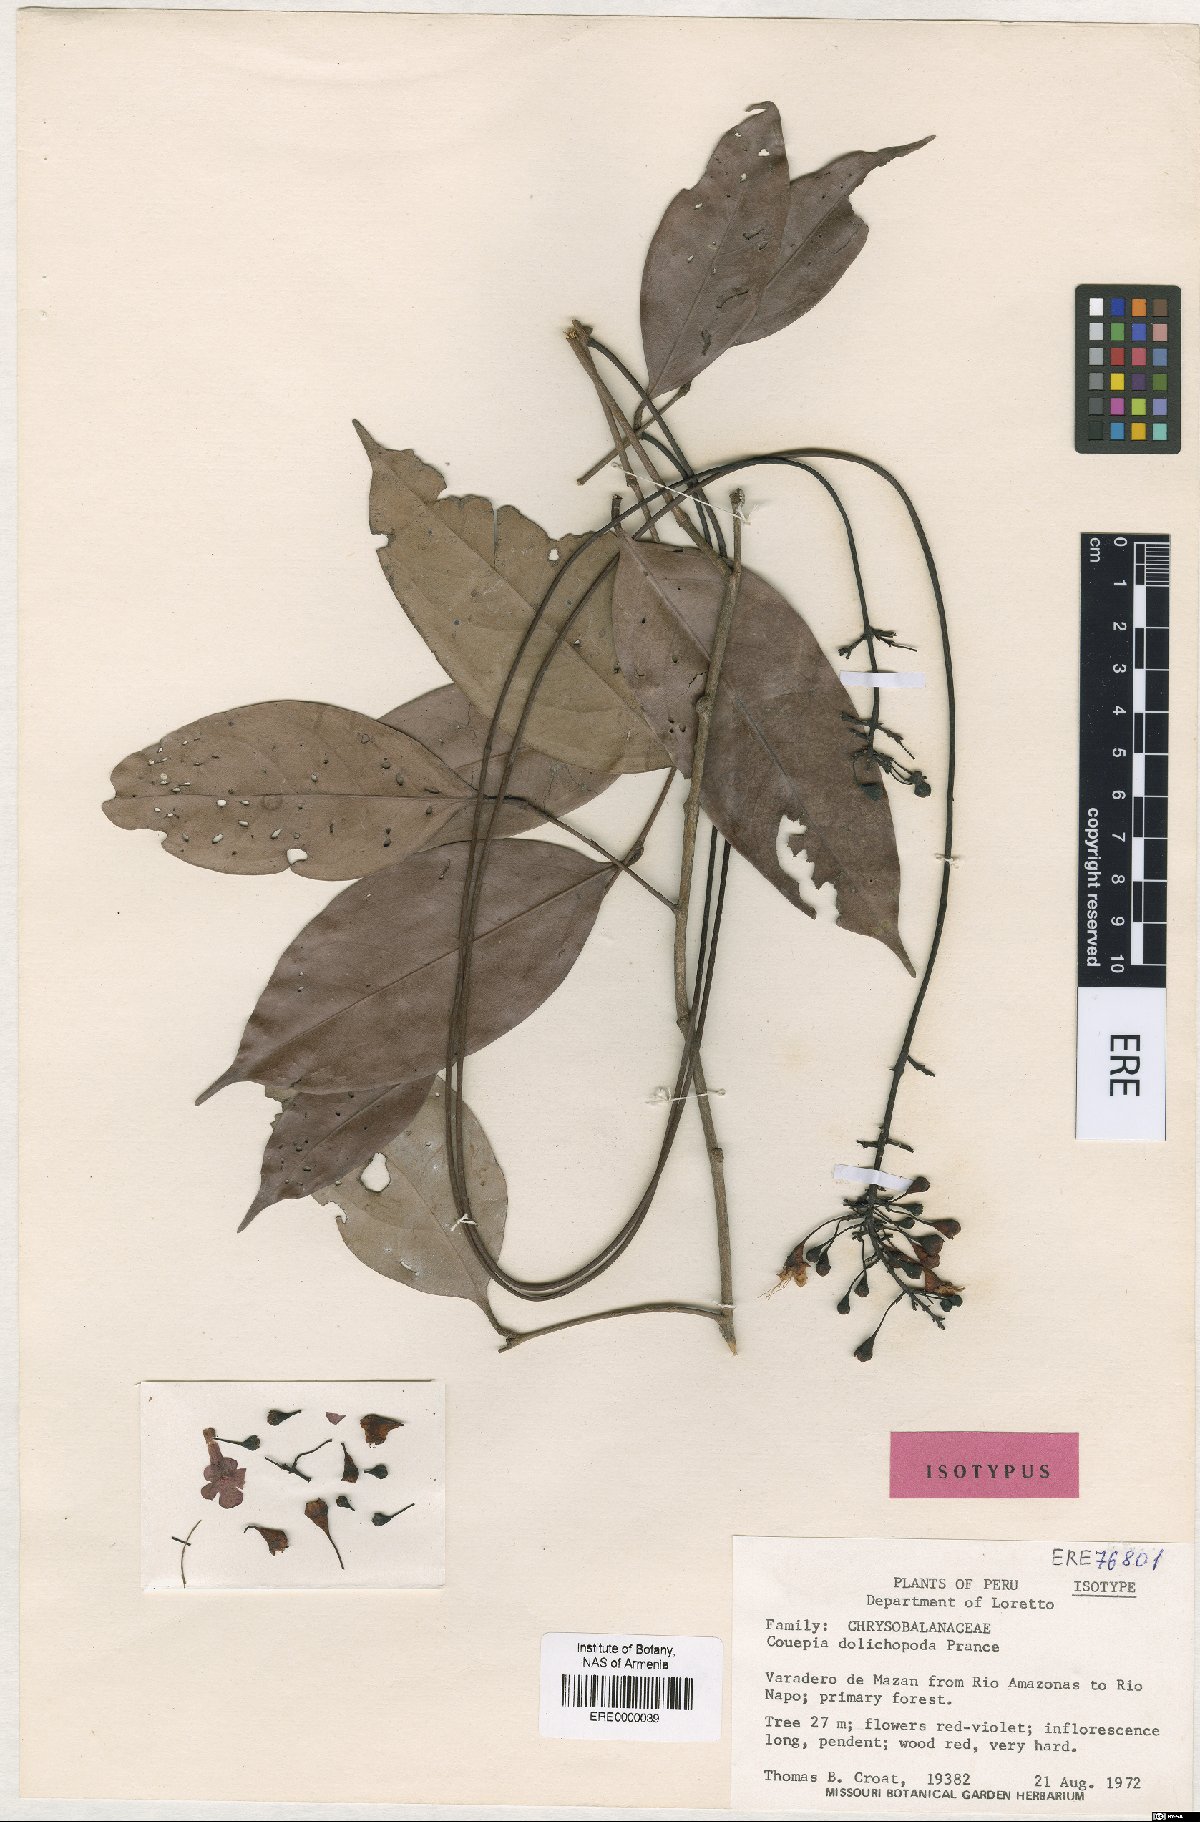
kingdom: Plantae
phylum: Tracheophyta
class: Magnoliopsida
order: Malpighiales
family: Chrysobalanaceae
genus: Acioa
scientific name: Acioa dolichopoda
